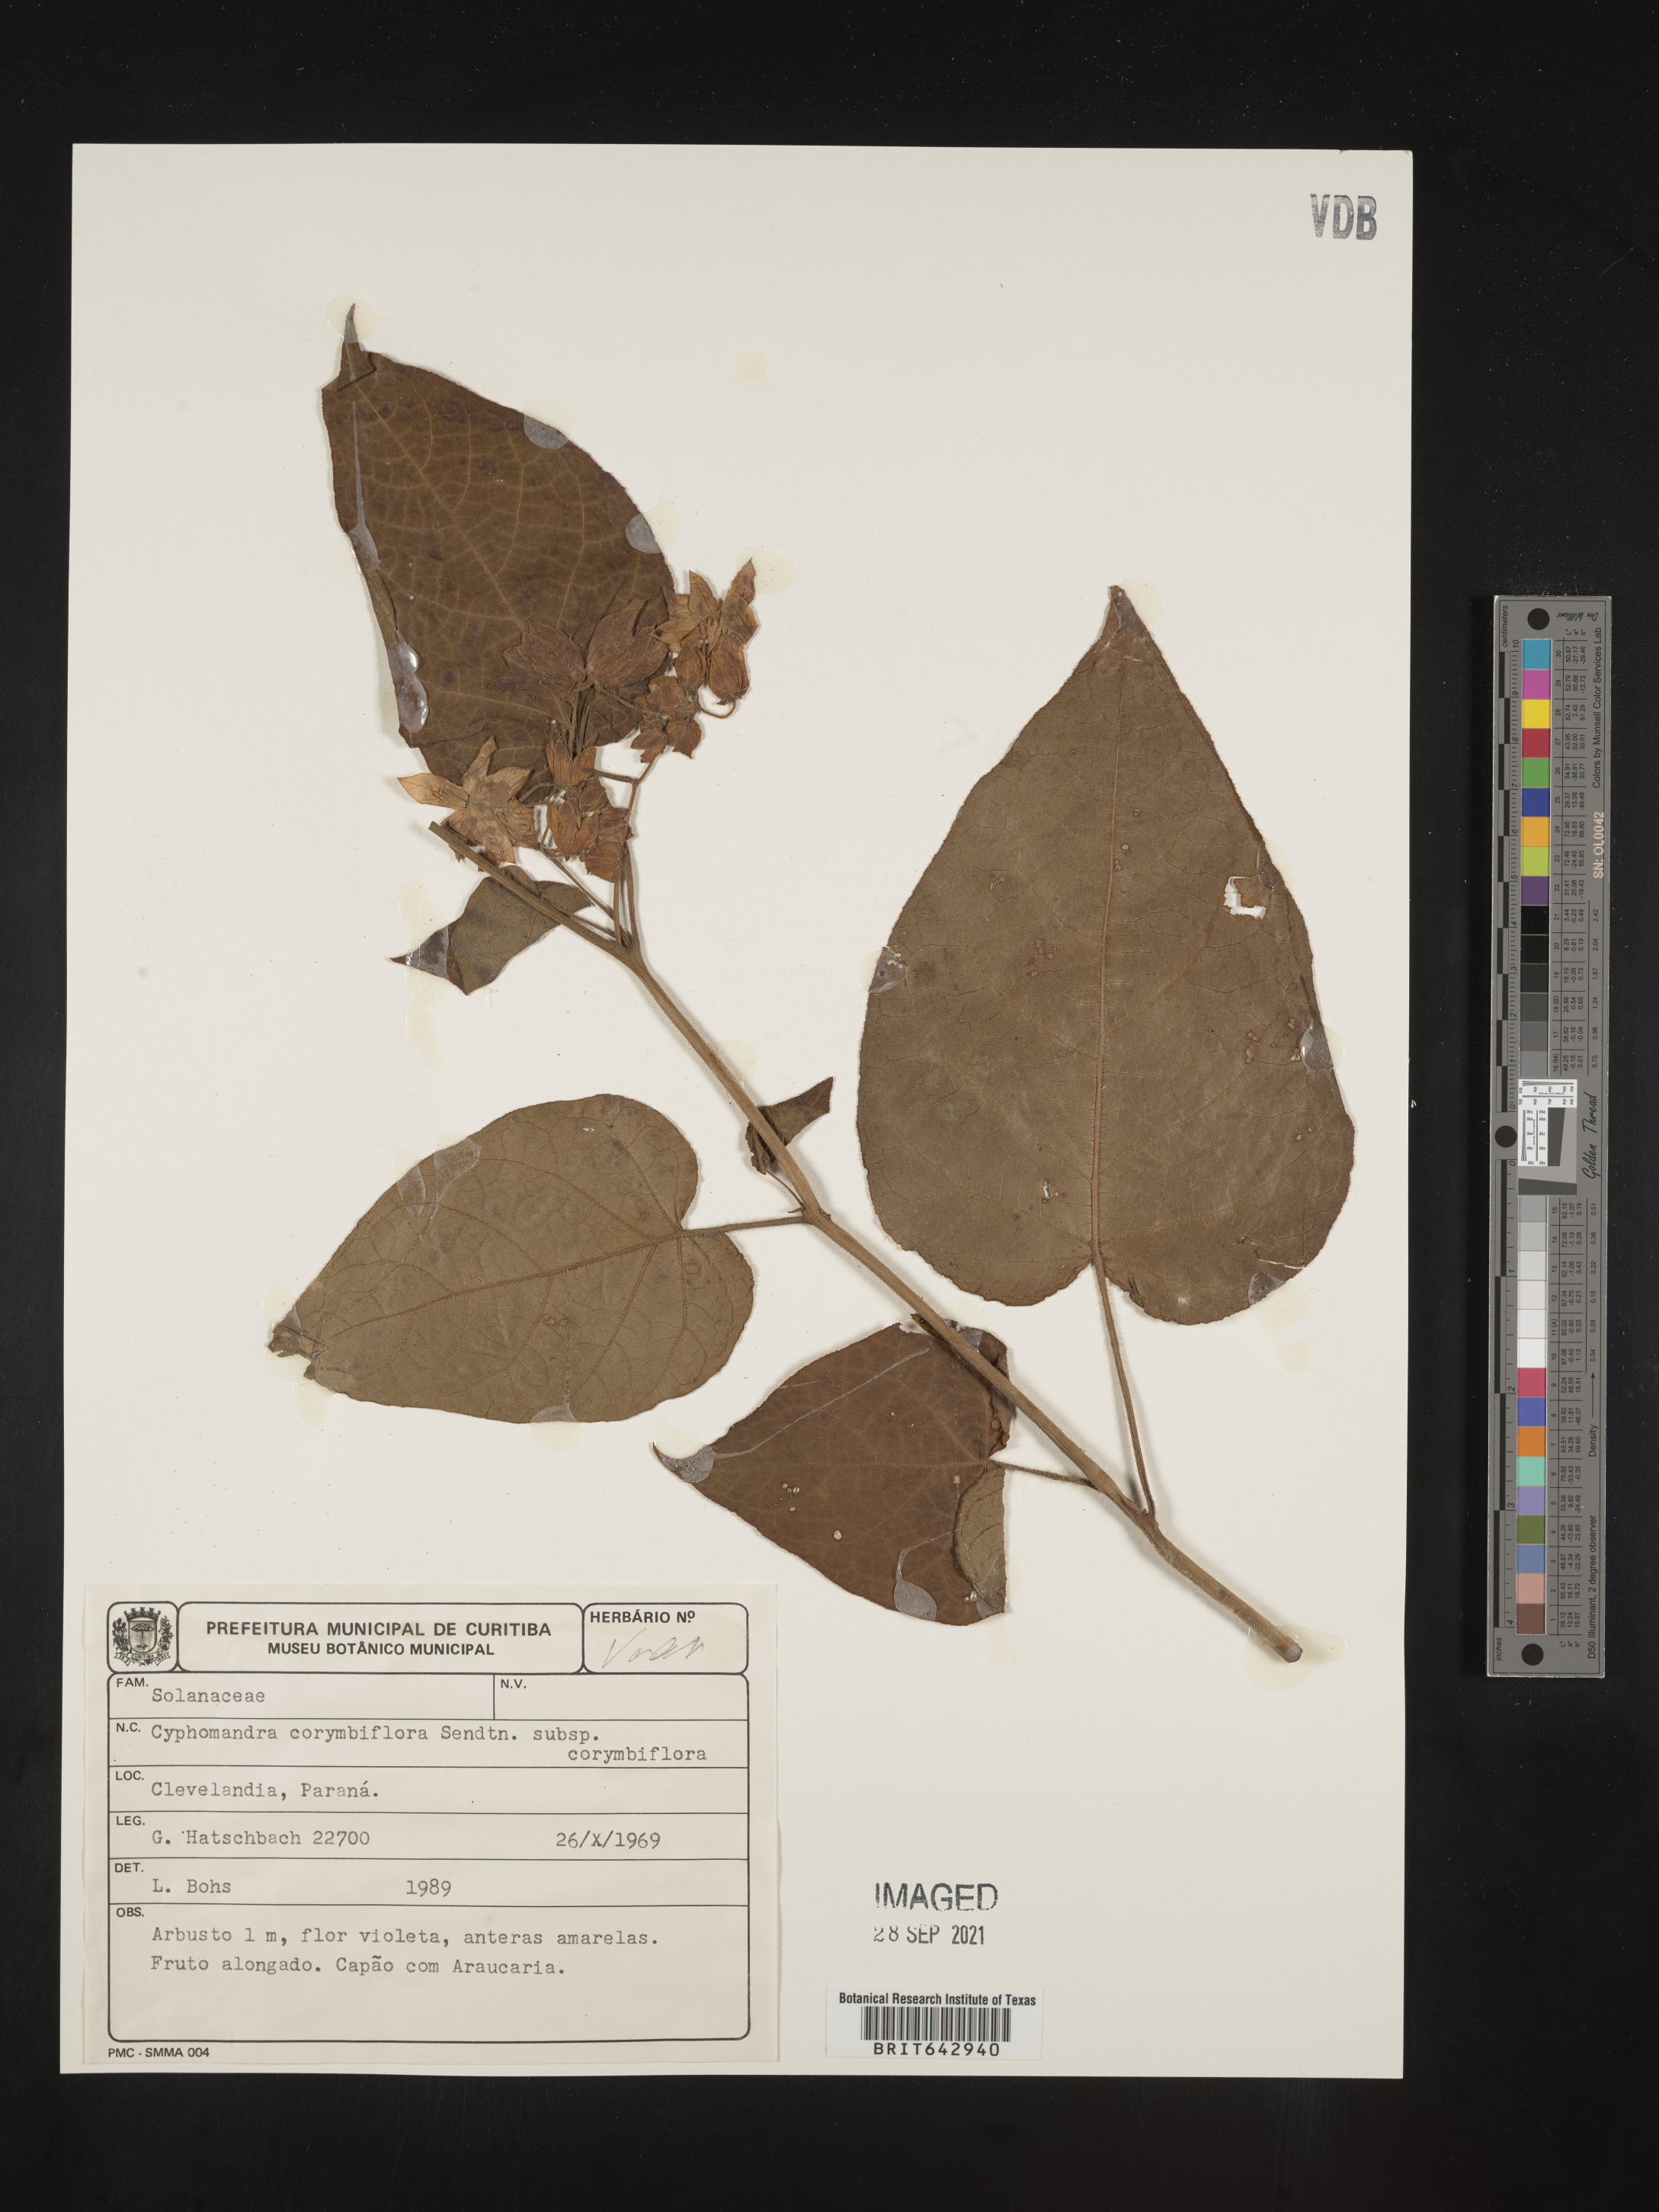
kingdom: Plantae
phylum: Tracheophyta
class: Magnoliopsida
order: Solanales
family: Solanaceae
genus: Solanum
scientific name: Solanum
